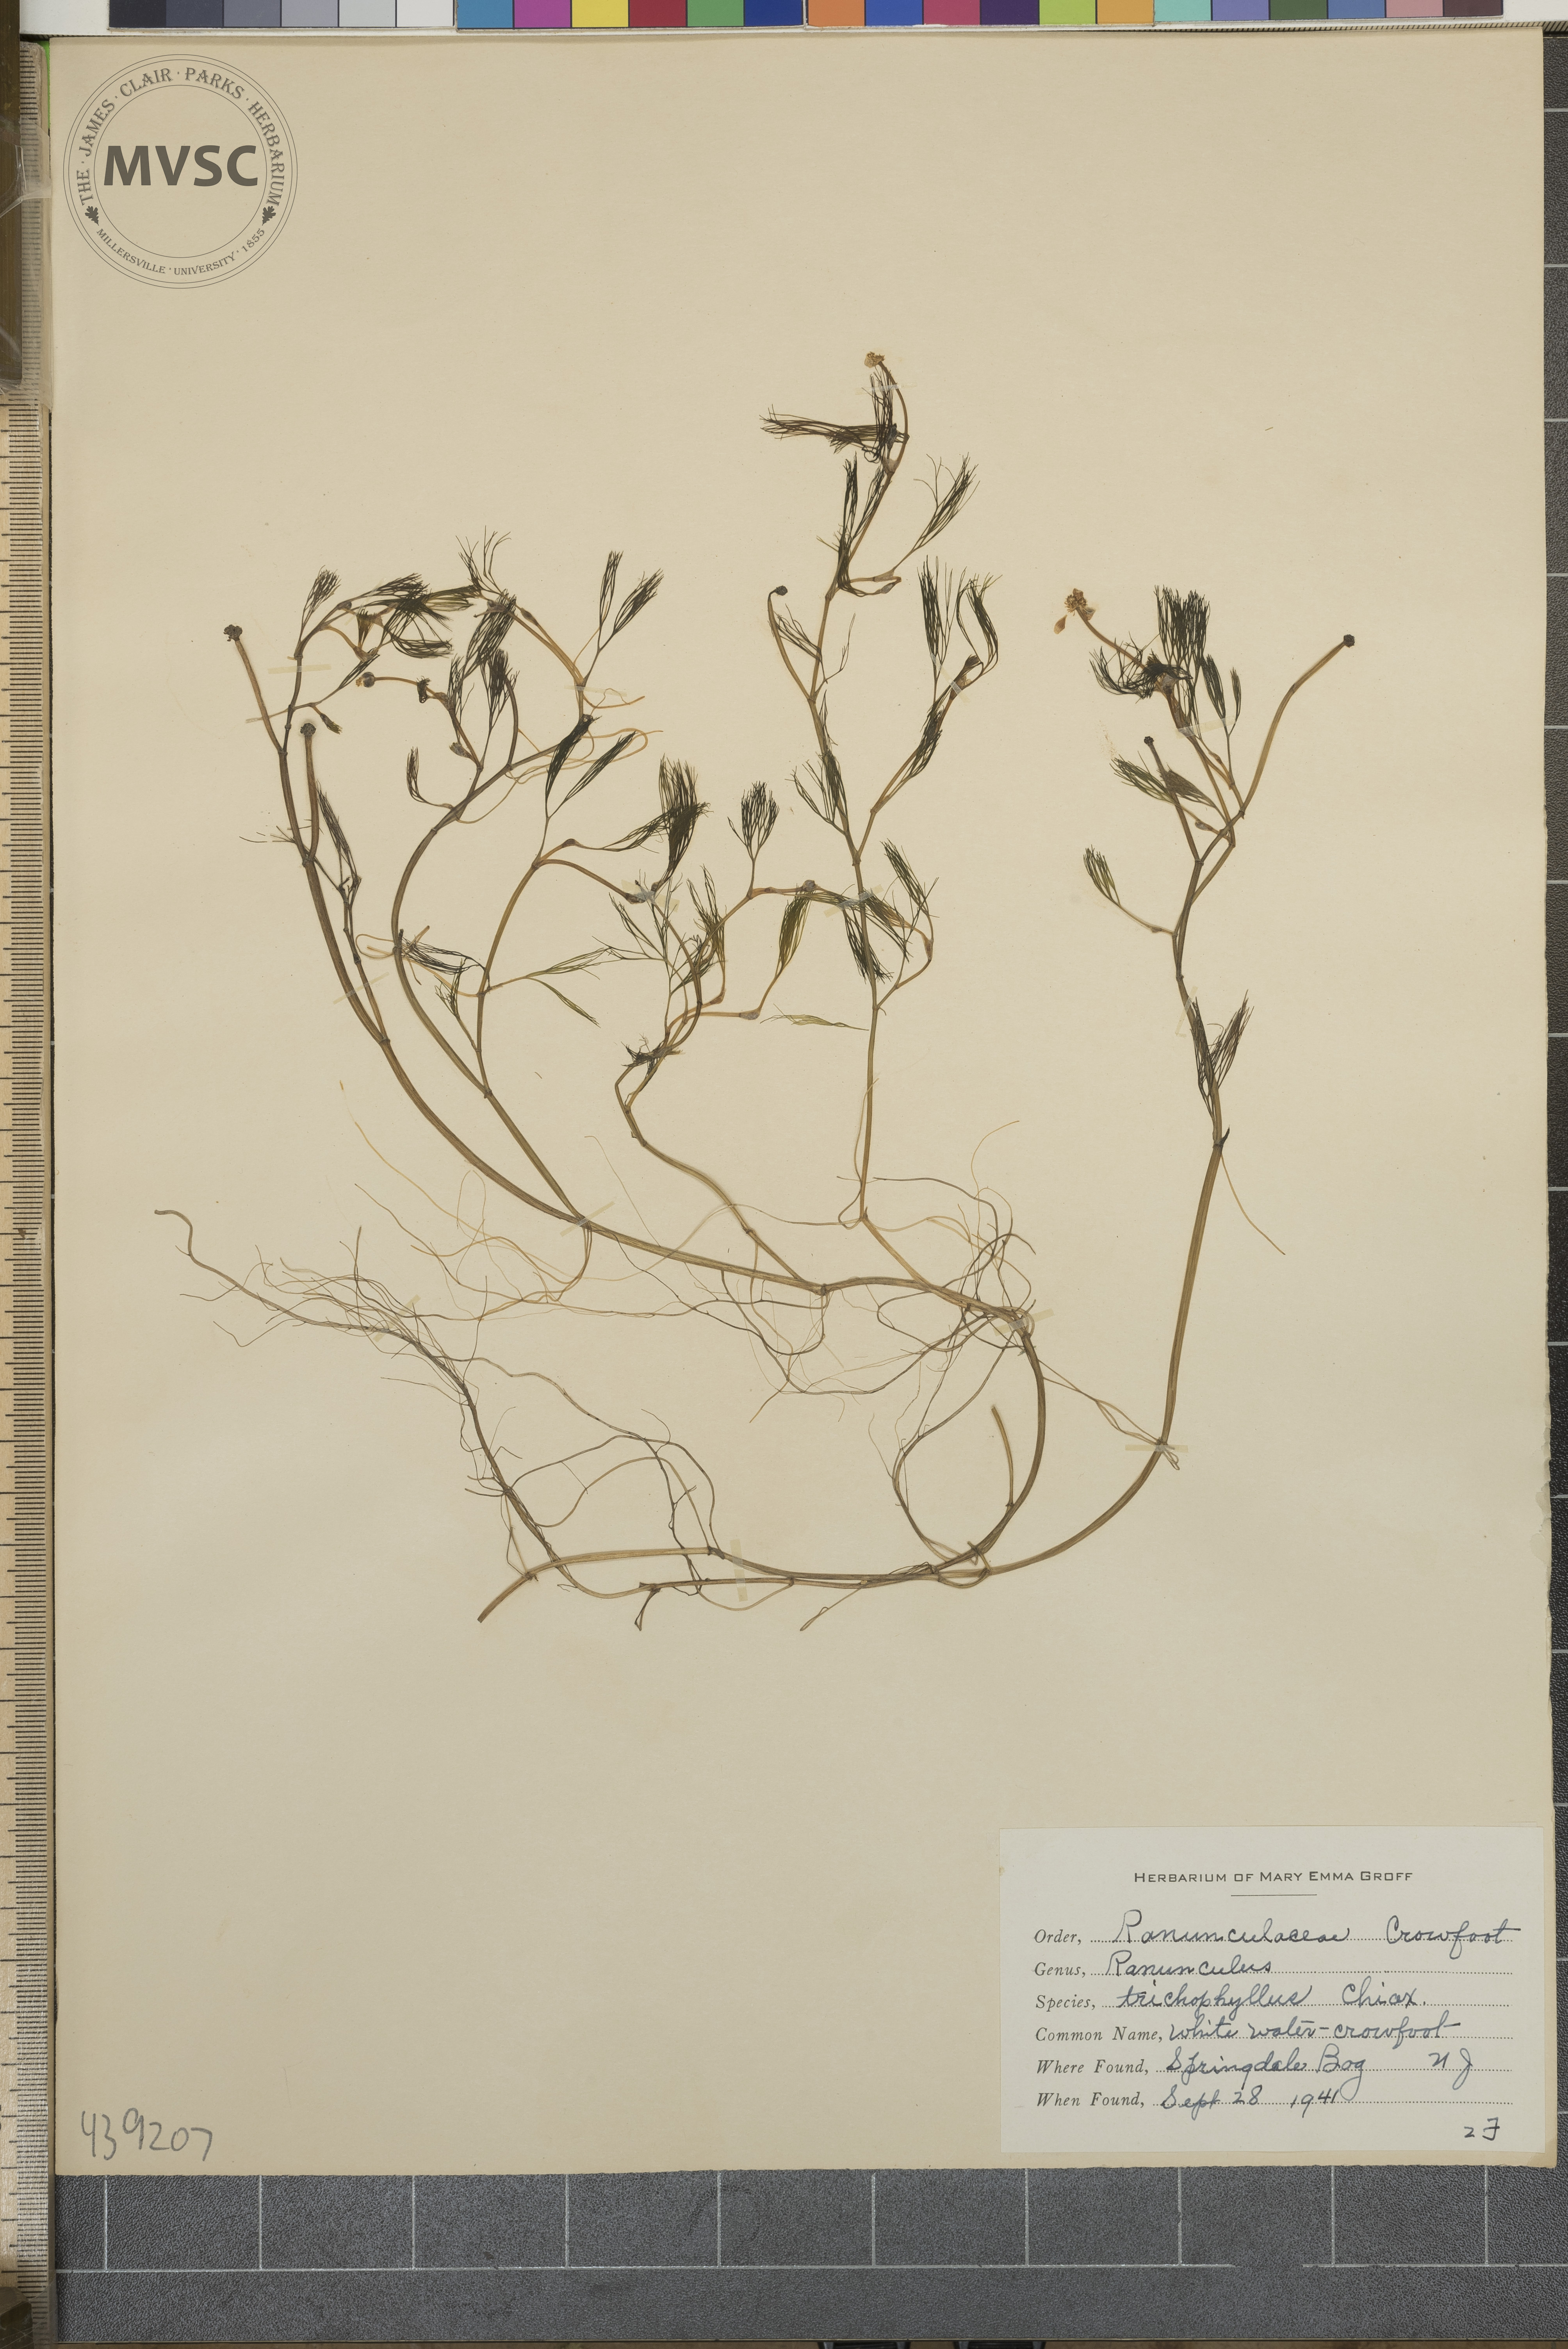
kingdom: Plantae
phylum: Tracheophyta
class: Magnoliopsida
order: Ranunculales
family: Ranunculaceae
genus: Ranunculus
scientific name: Ranunculus trichophyllus
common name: White water crowfoot
